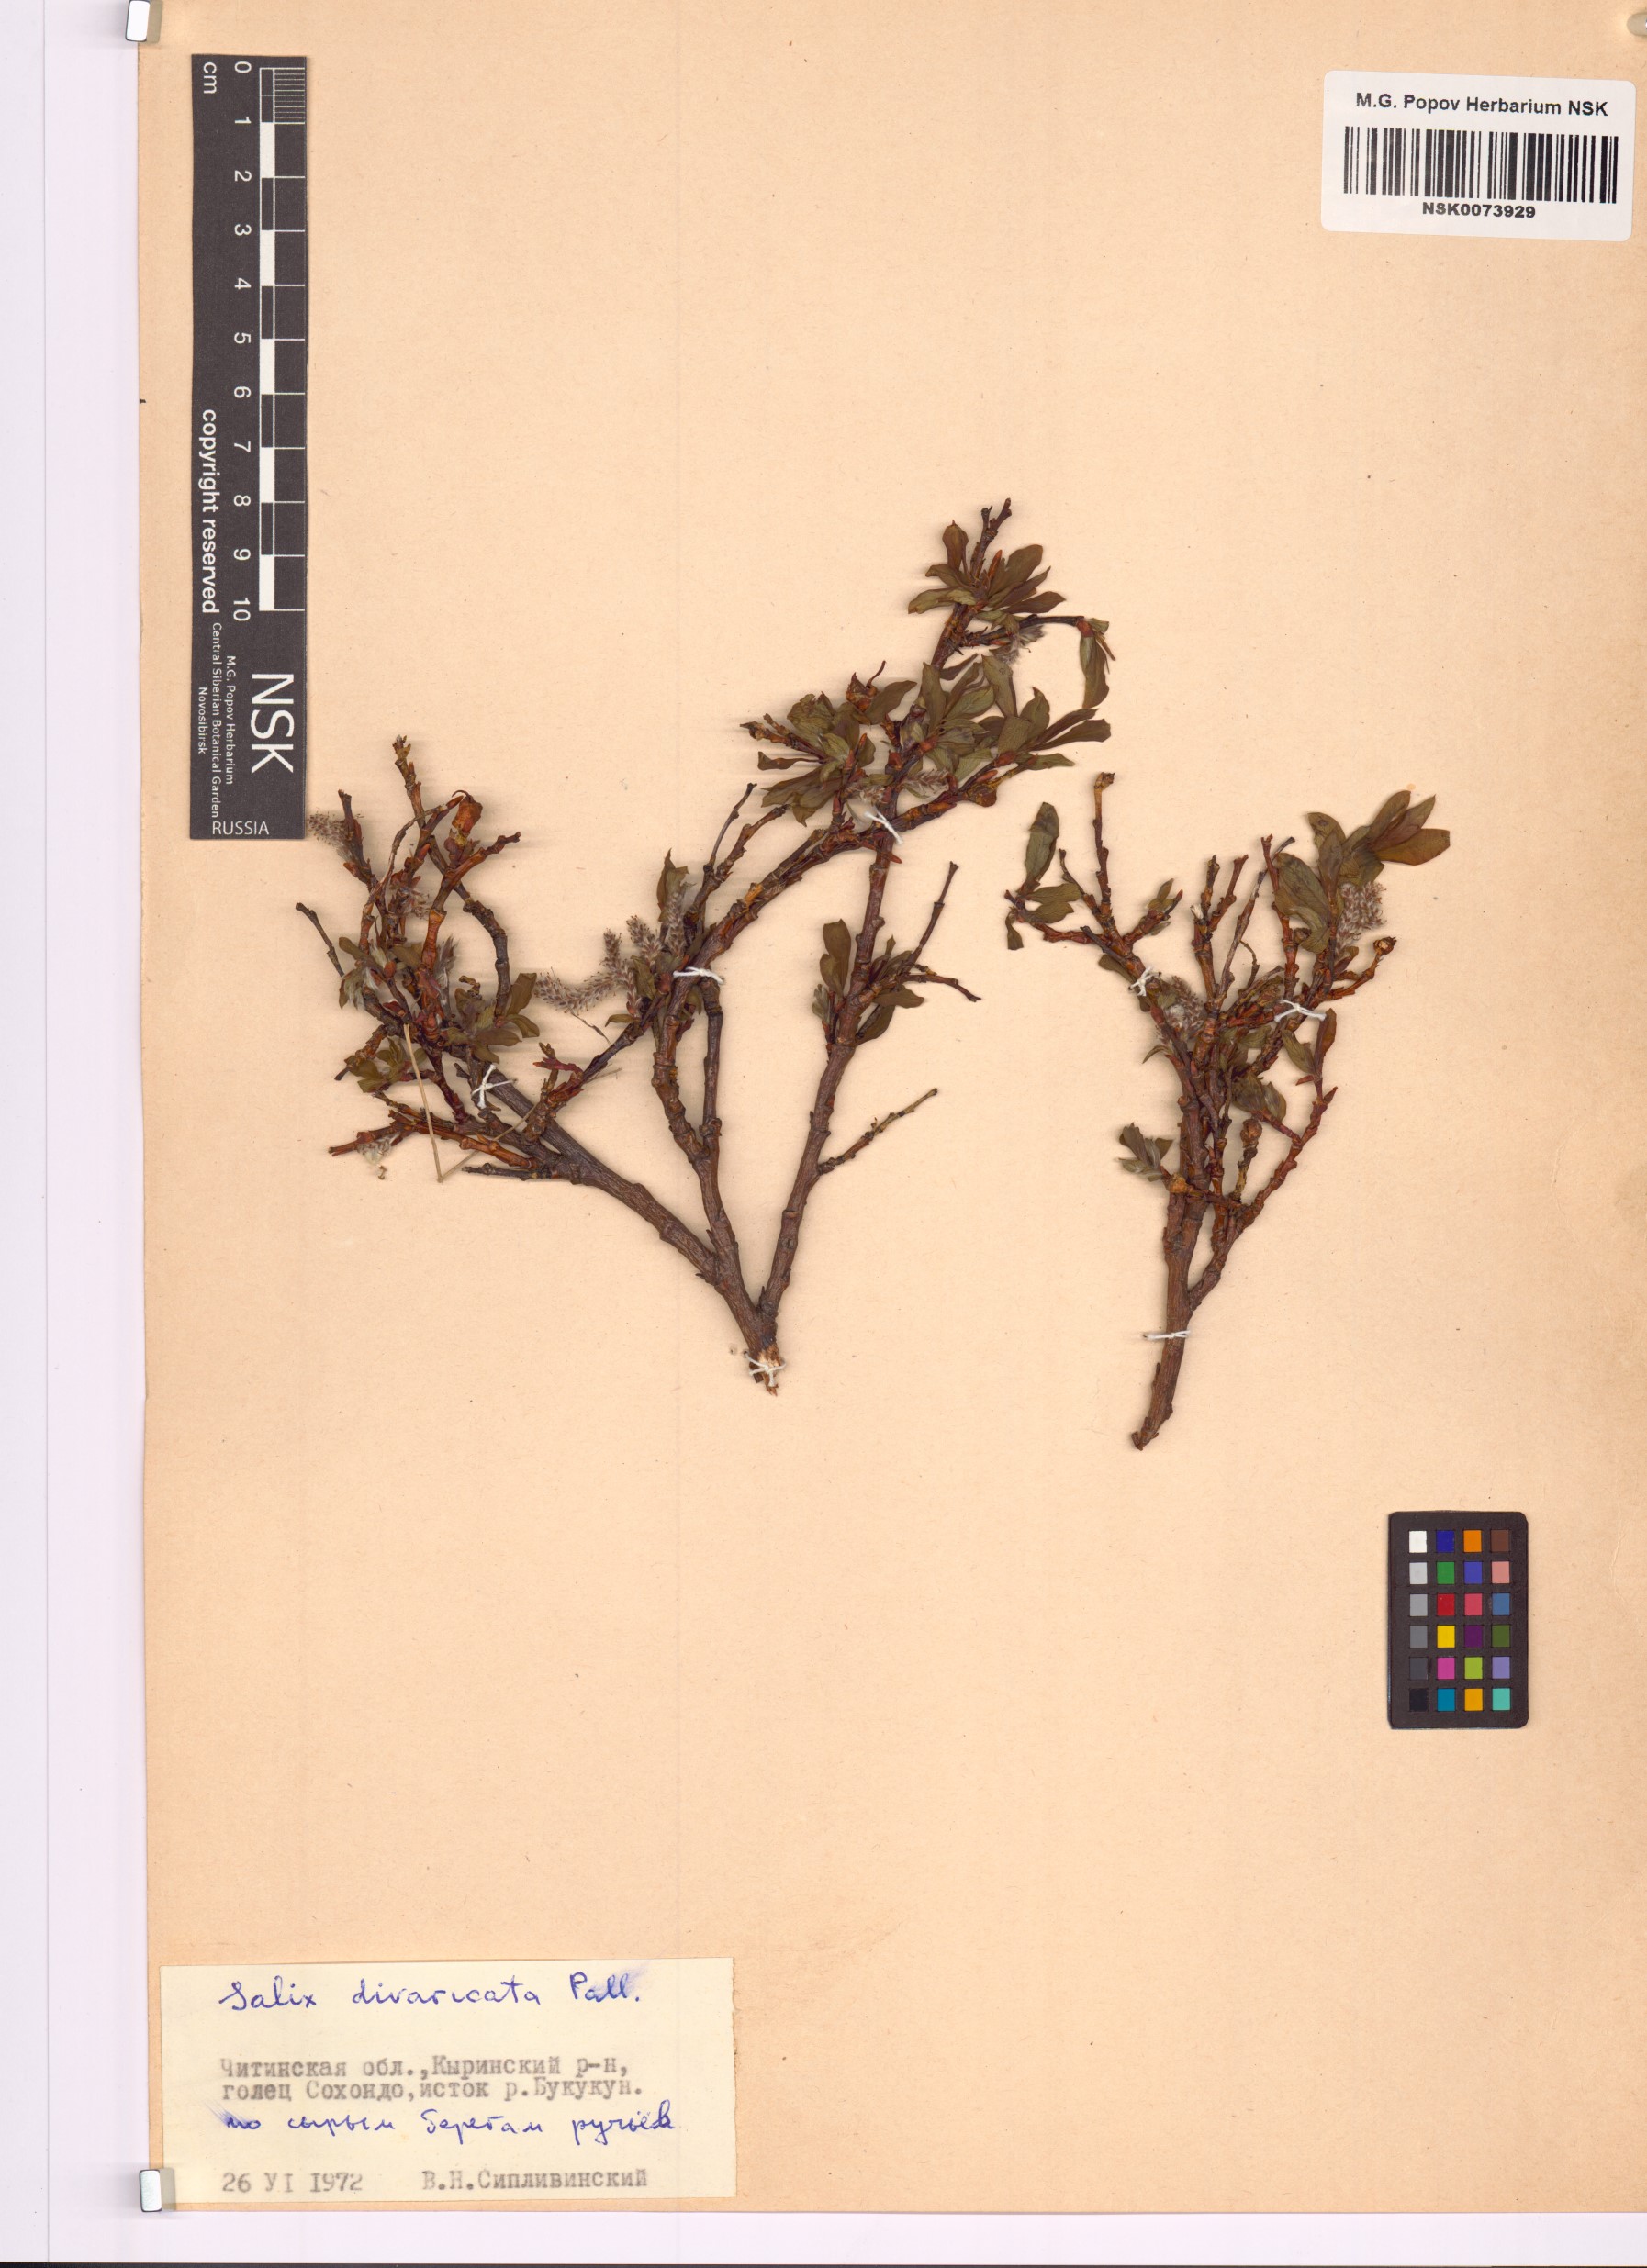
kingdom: Plantae
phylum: Tracheophyta
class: Magnoliopsida
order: Malpighiales
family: Salicaceae
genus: Salix
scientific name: Salix divaricata
